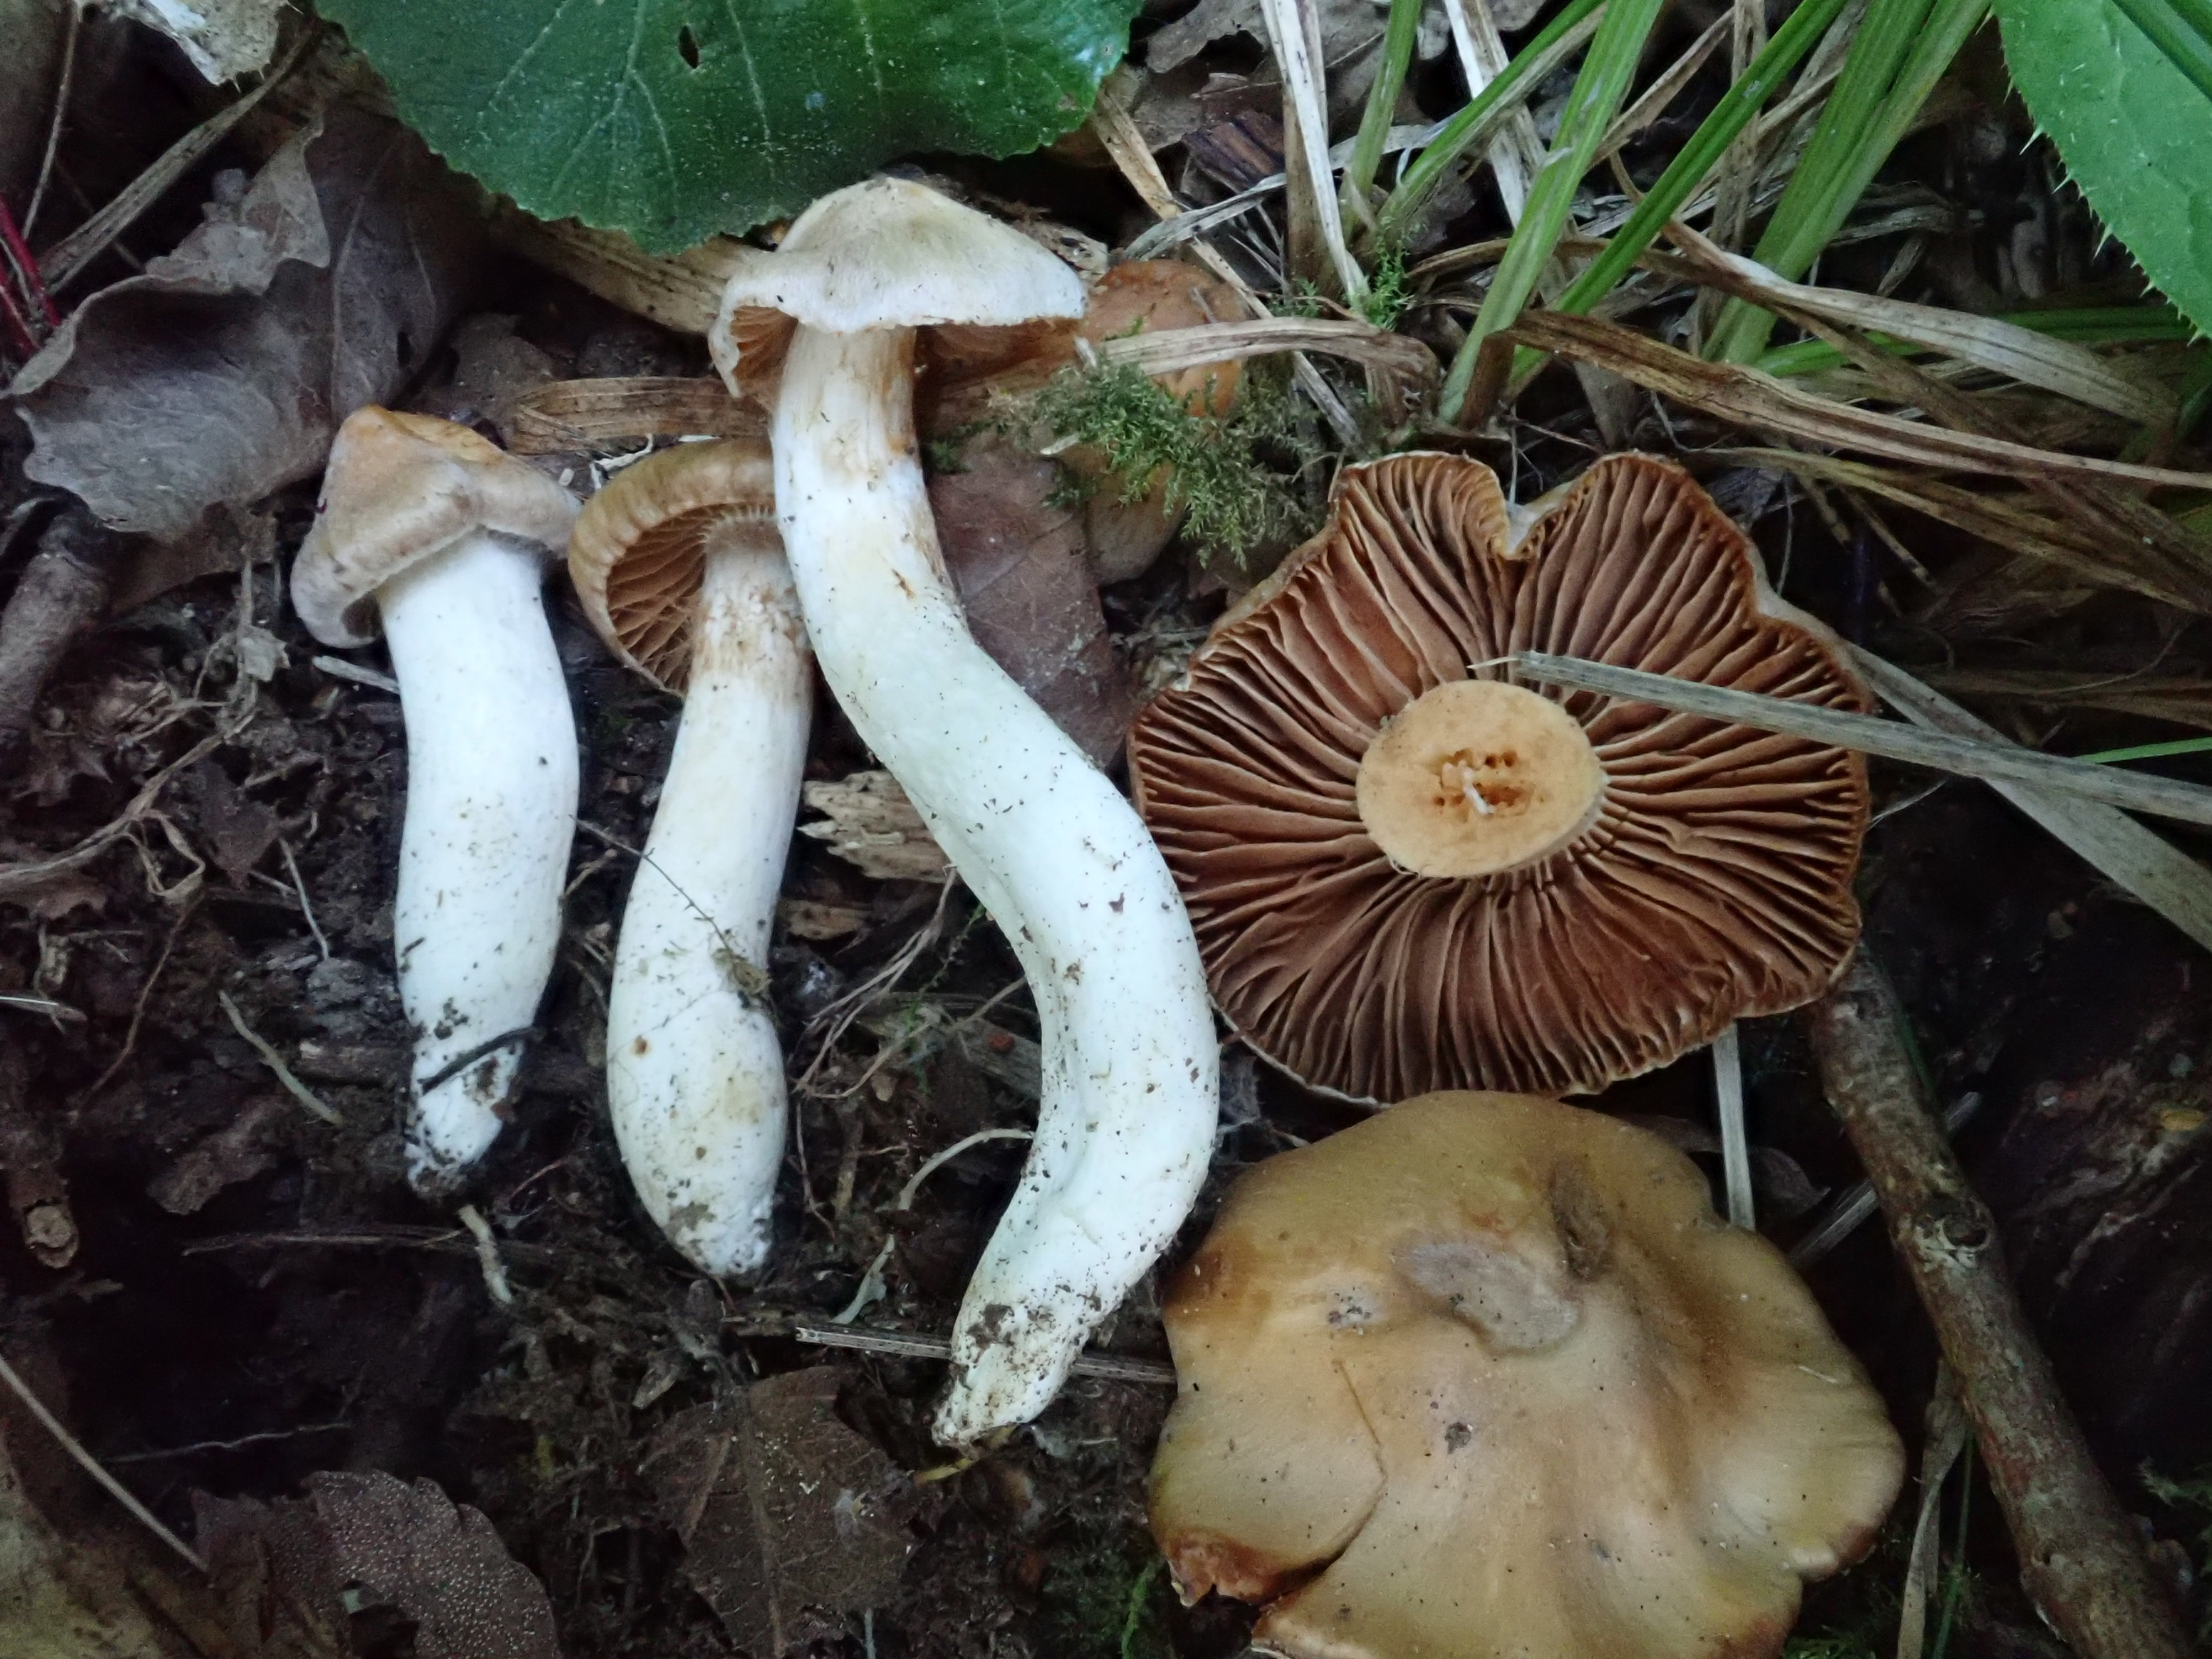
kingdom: Fungi
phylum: Basidiomycota
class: Agaricomycetes
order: Agaricales
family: Hymenogastraceae
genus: Hebeloma
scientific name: Hebeloma
